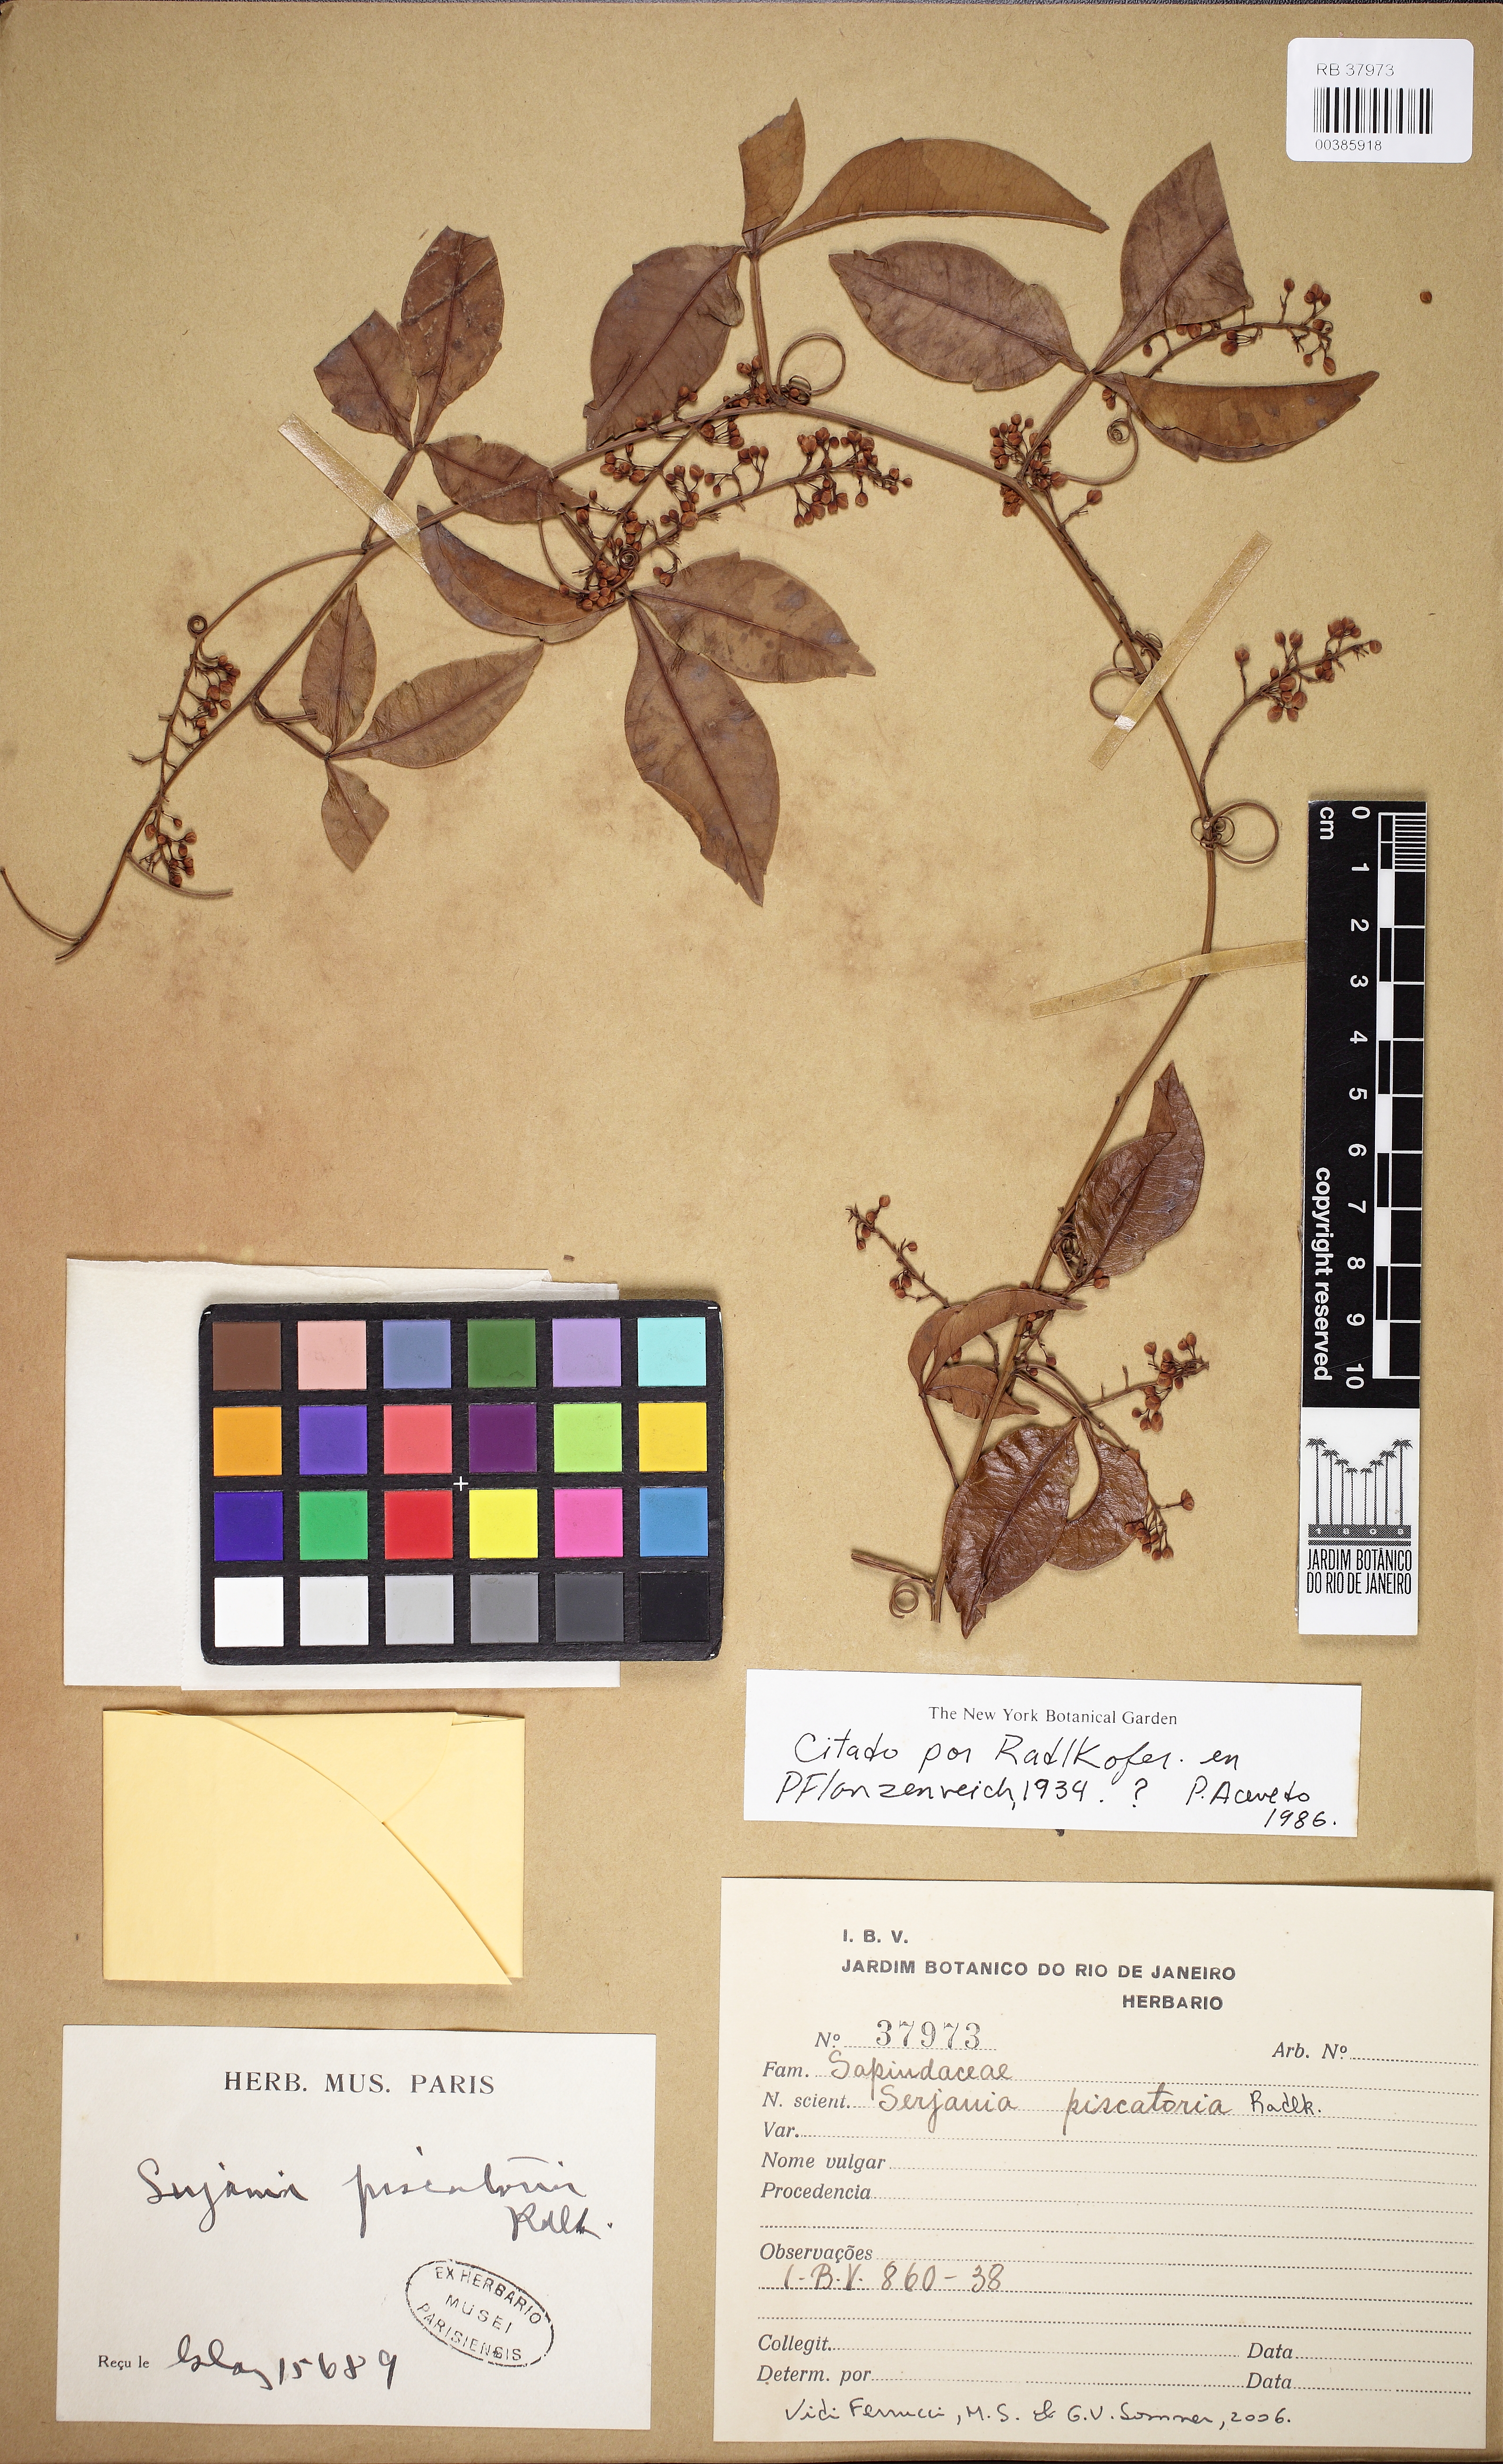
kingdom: Plantae
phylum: Tracheophyta
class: Magnoliopsida
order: Sapindales
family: Sapindaceae
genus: Serjania
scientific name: Serjania piscatoria
